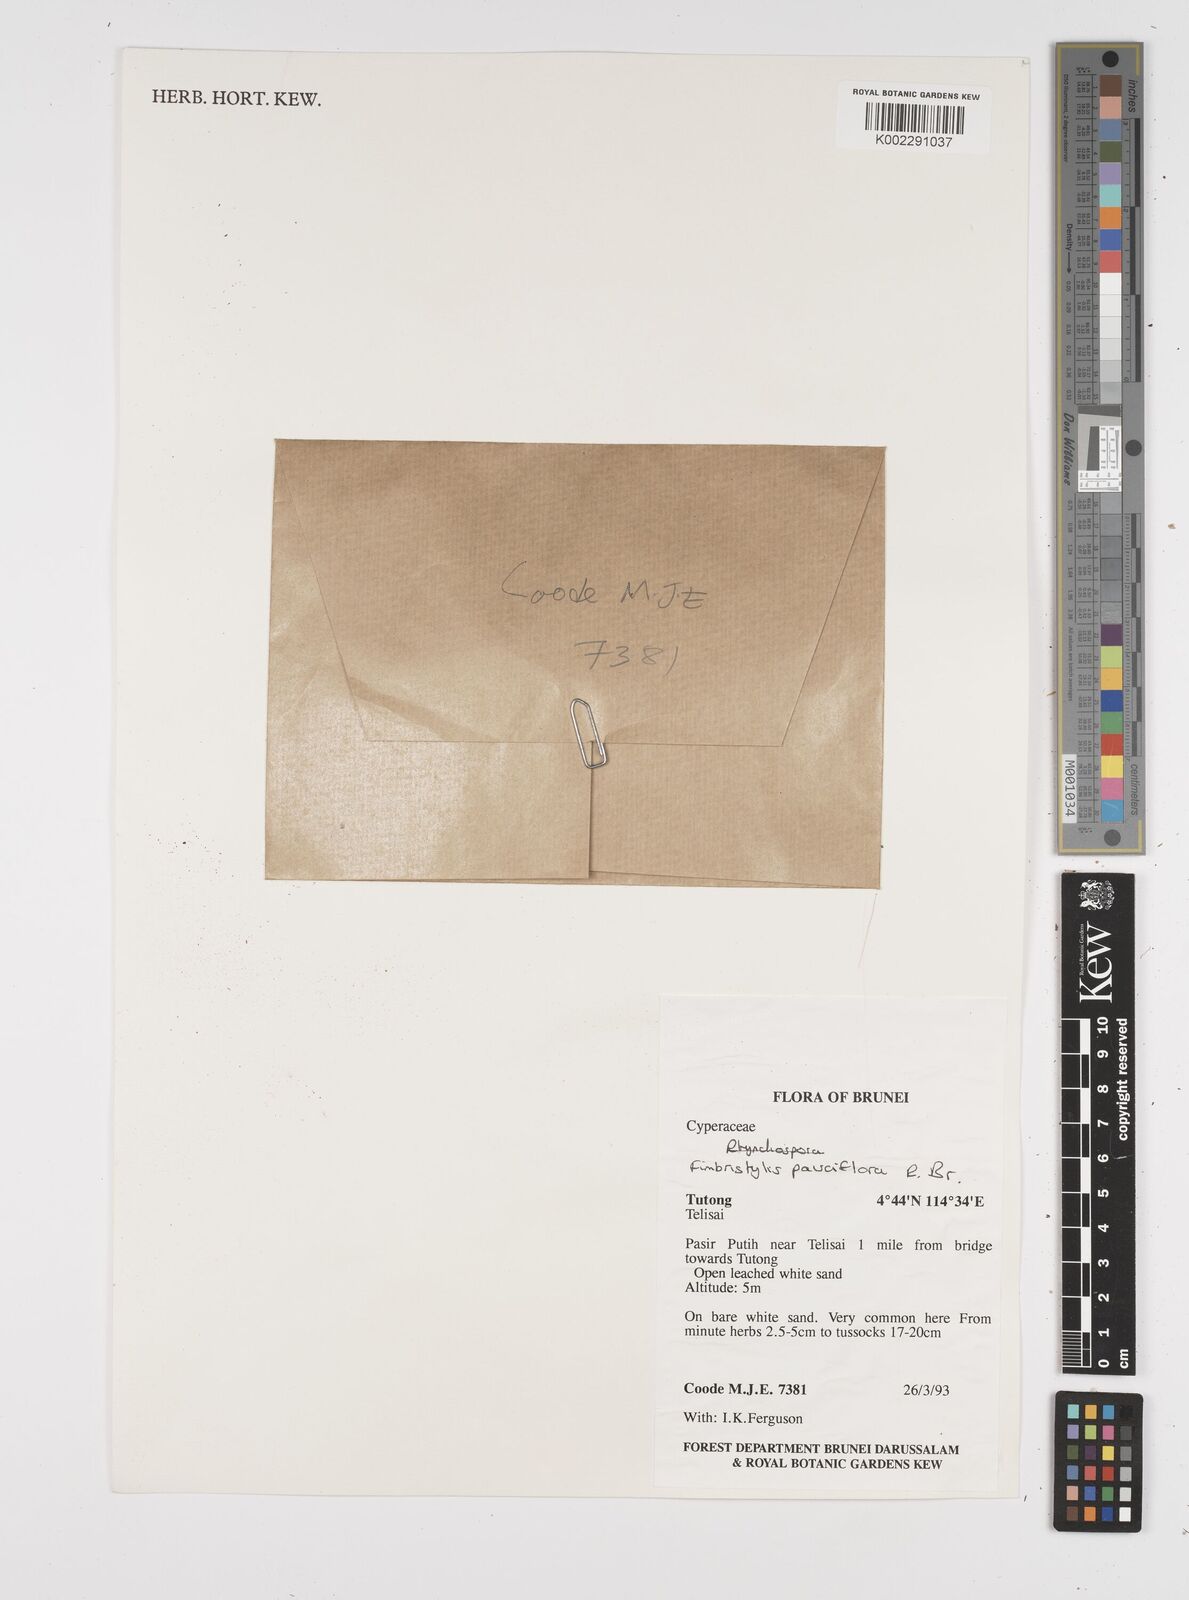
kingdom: Plantae
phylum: Tracheophyta
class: Liliopsida
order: Poales
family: Cyperaceae
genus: Fimbristylis
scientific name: Fimbristylis pauciflora
